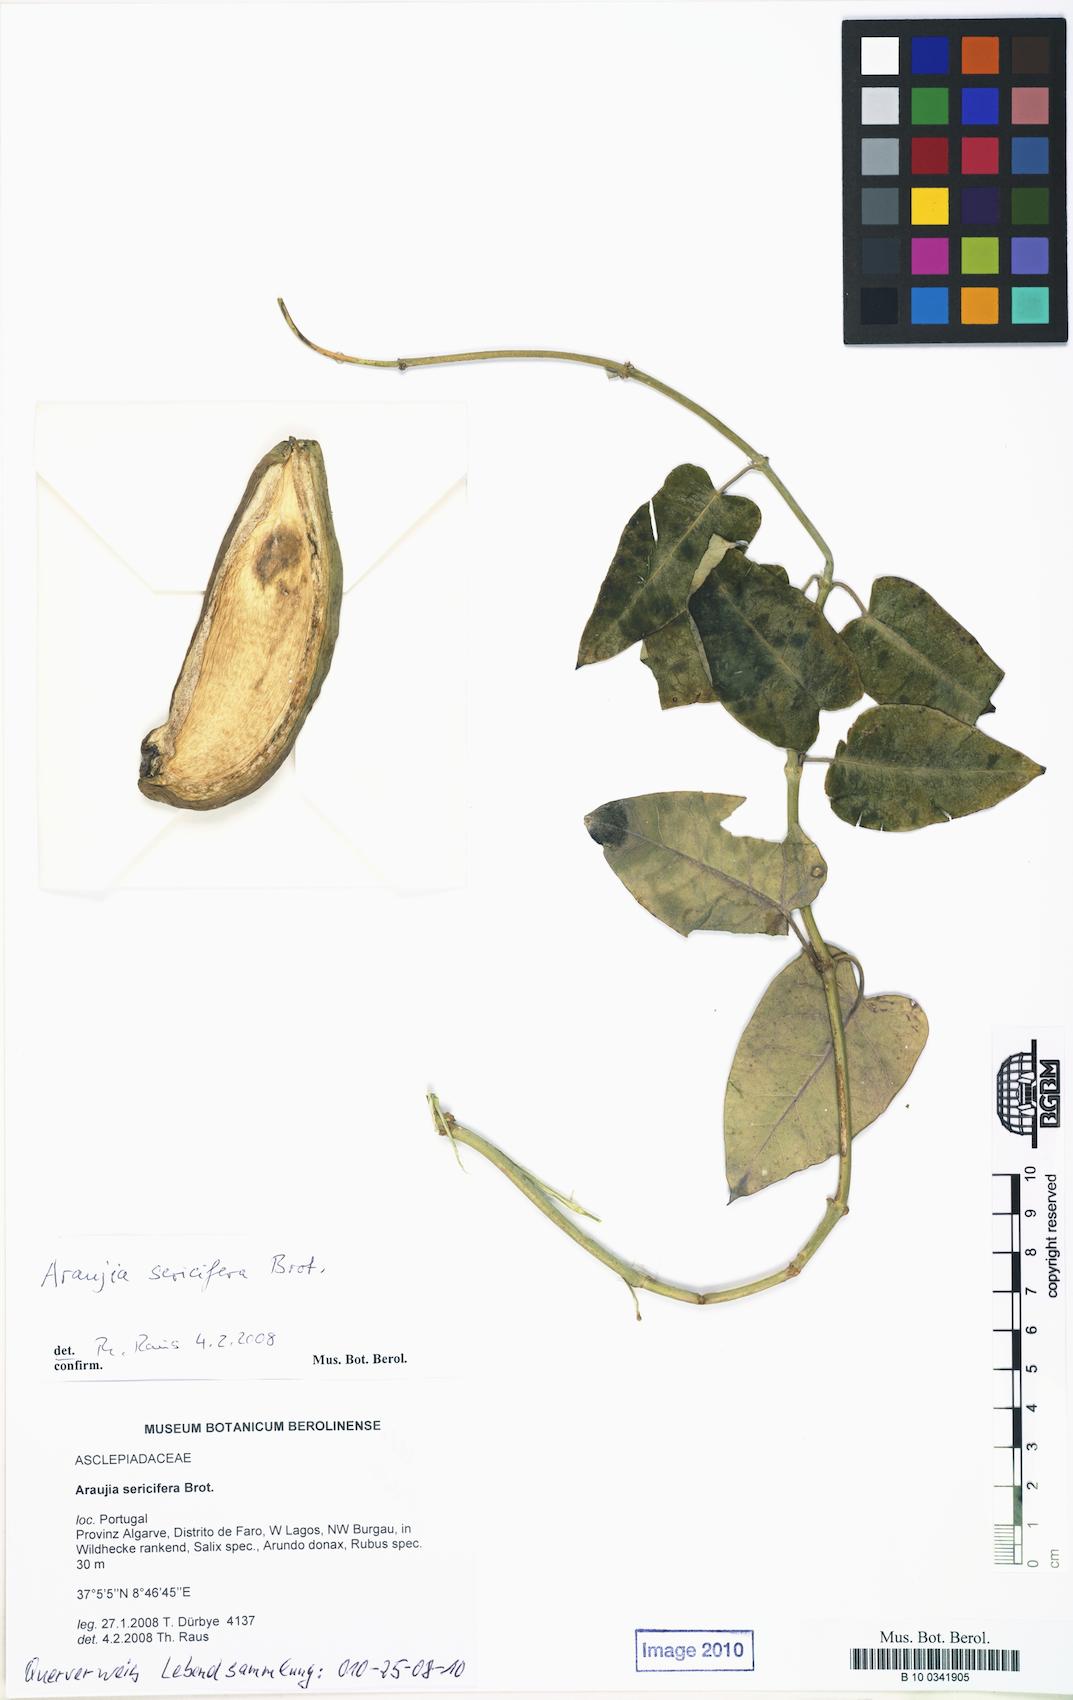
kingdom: Plantae
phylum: Tracheophyta
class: Magnoliopsida
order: Gentianales
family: Apocynaceae
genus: Araujia
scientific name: Araujia sericifera
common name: White bladderflower
